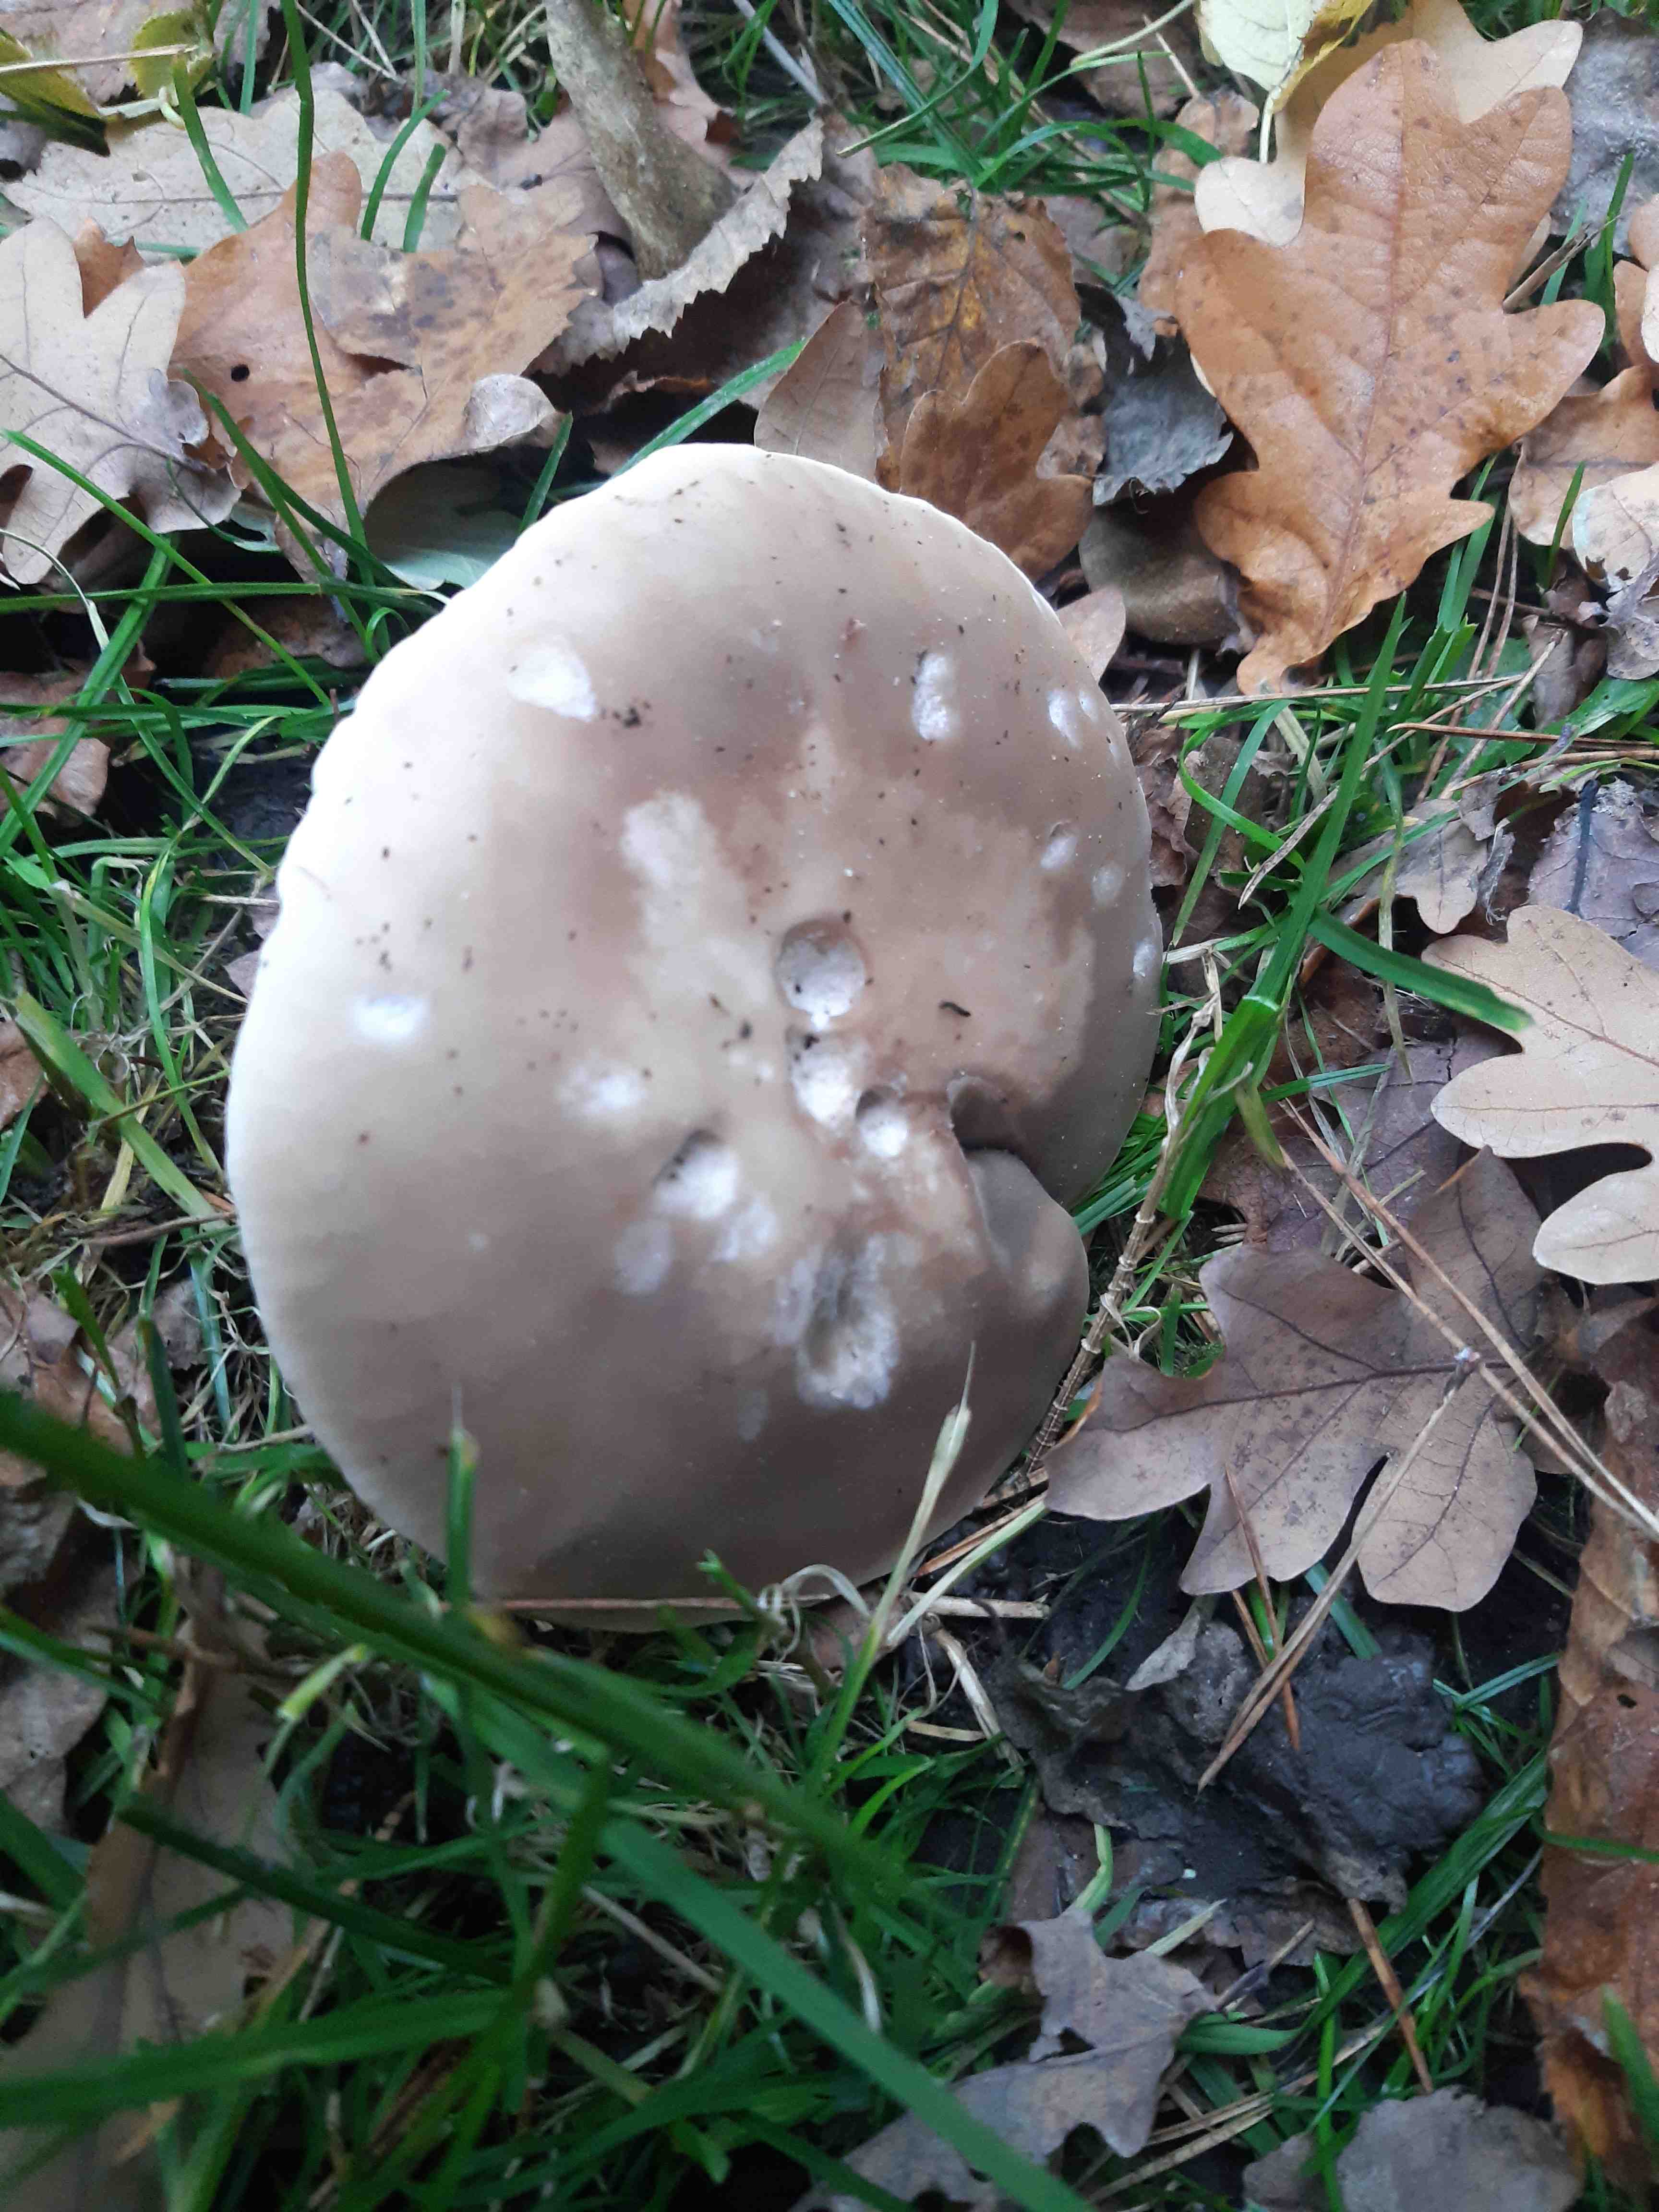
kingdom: Fungi
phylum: Basidiomycota
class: Agaricomycetes
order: Agaricales
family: Tricholomataceae
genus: Lepista
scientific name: Lepista personata
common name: bleg hekseringshat
